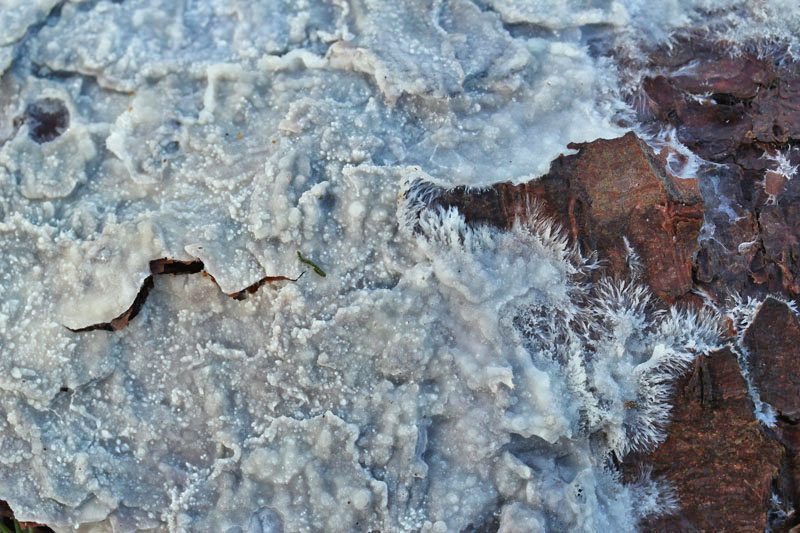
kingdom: Fungi
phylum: Basidiomycota
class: Agaricomycetes
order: Polyporales
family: Phanerochaetaceae
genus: Phlebiopsis
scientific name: Phlebiopsis gigantea
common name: kæmpebarksvamp
